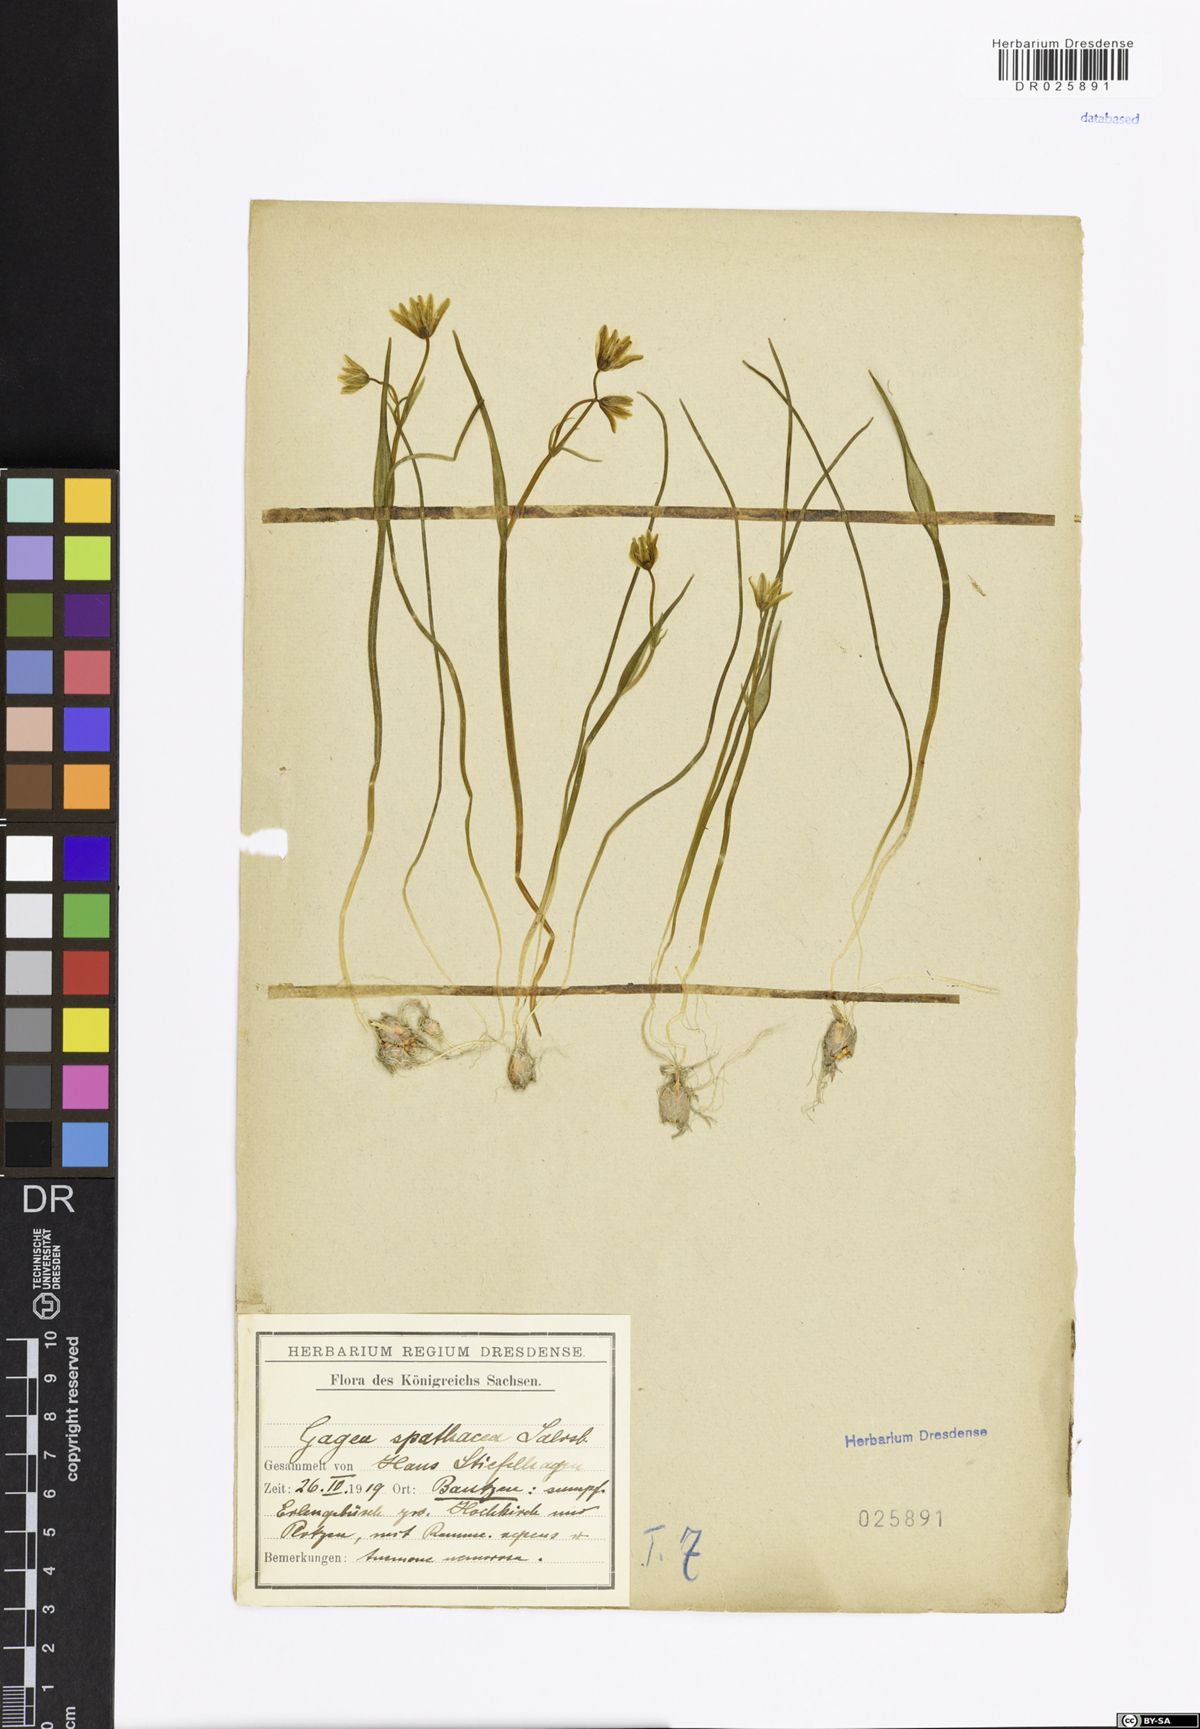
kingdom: Plantae
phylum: Tracheophyta
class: Liliopsida
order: Liliales
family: Liliaceae
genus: Gagea
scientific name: Gagea spathacea
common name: Belgian gagea
